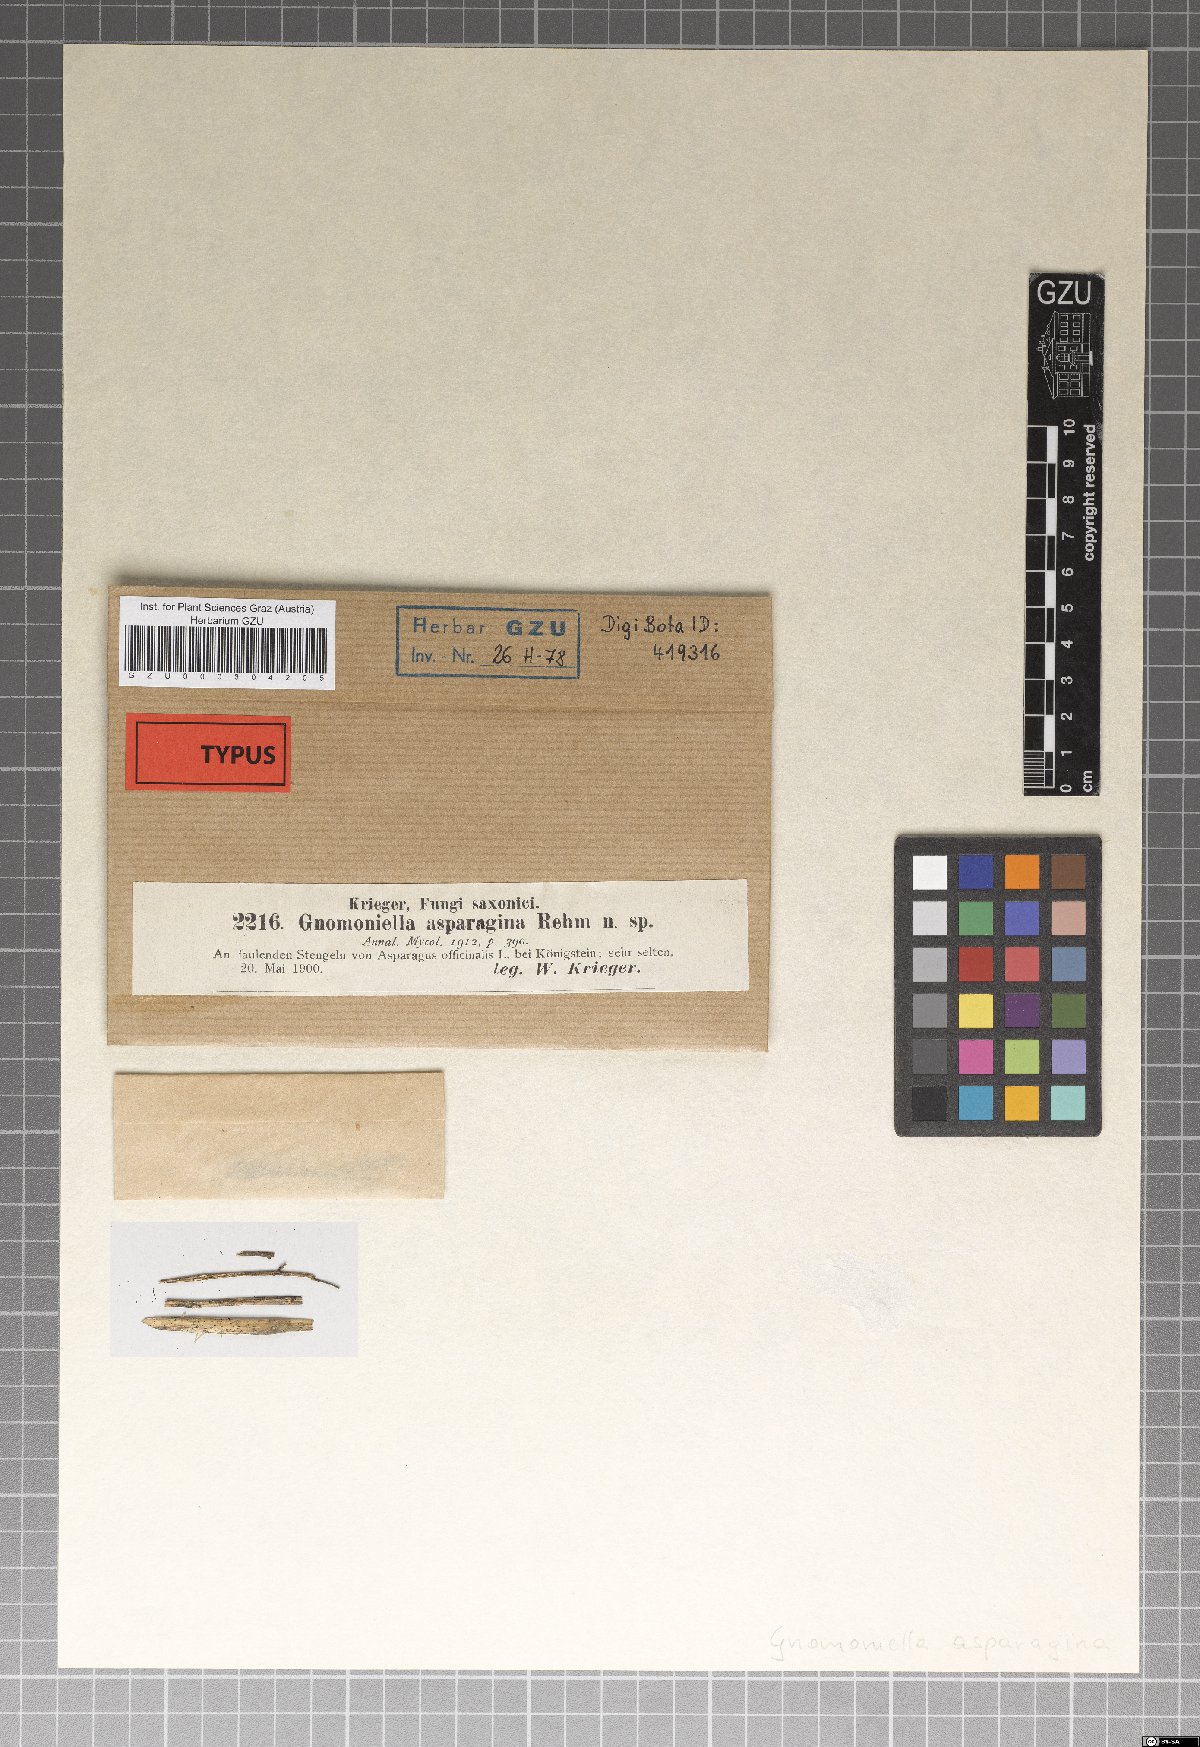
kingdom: Fungi
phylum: Ascomycota
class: Sordariomycetes
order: Diaporthales
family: Gnomoniaceae
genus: Gnomoniella
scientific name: Gnomoniella asparagina
